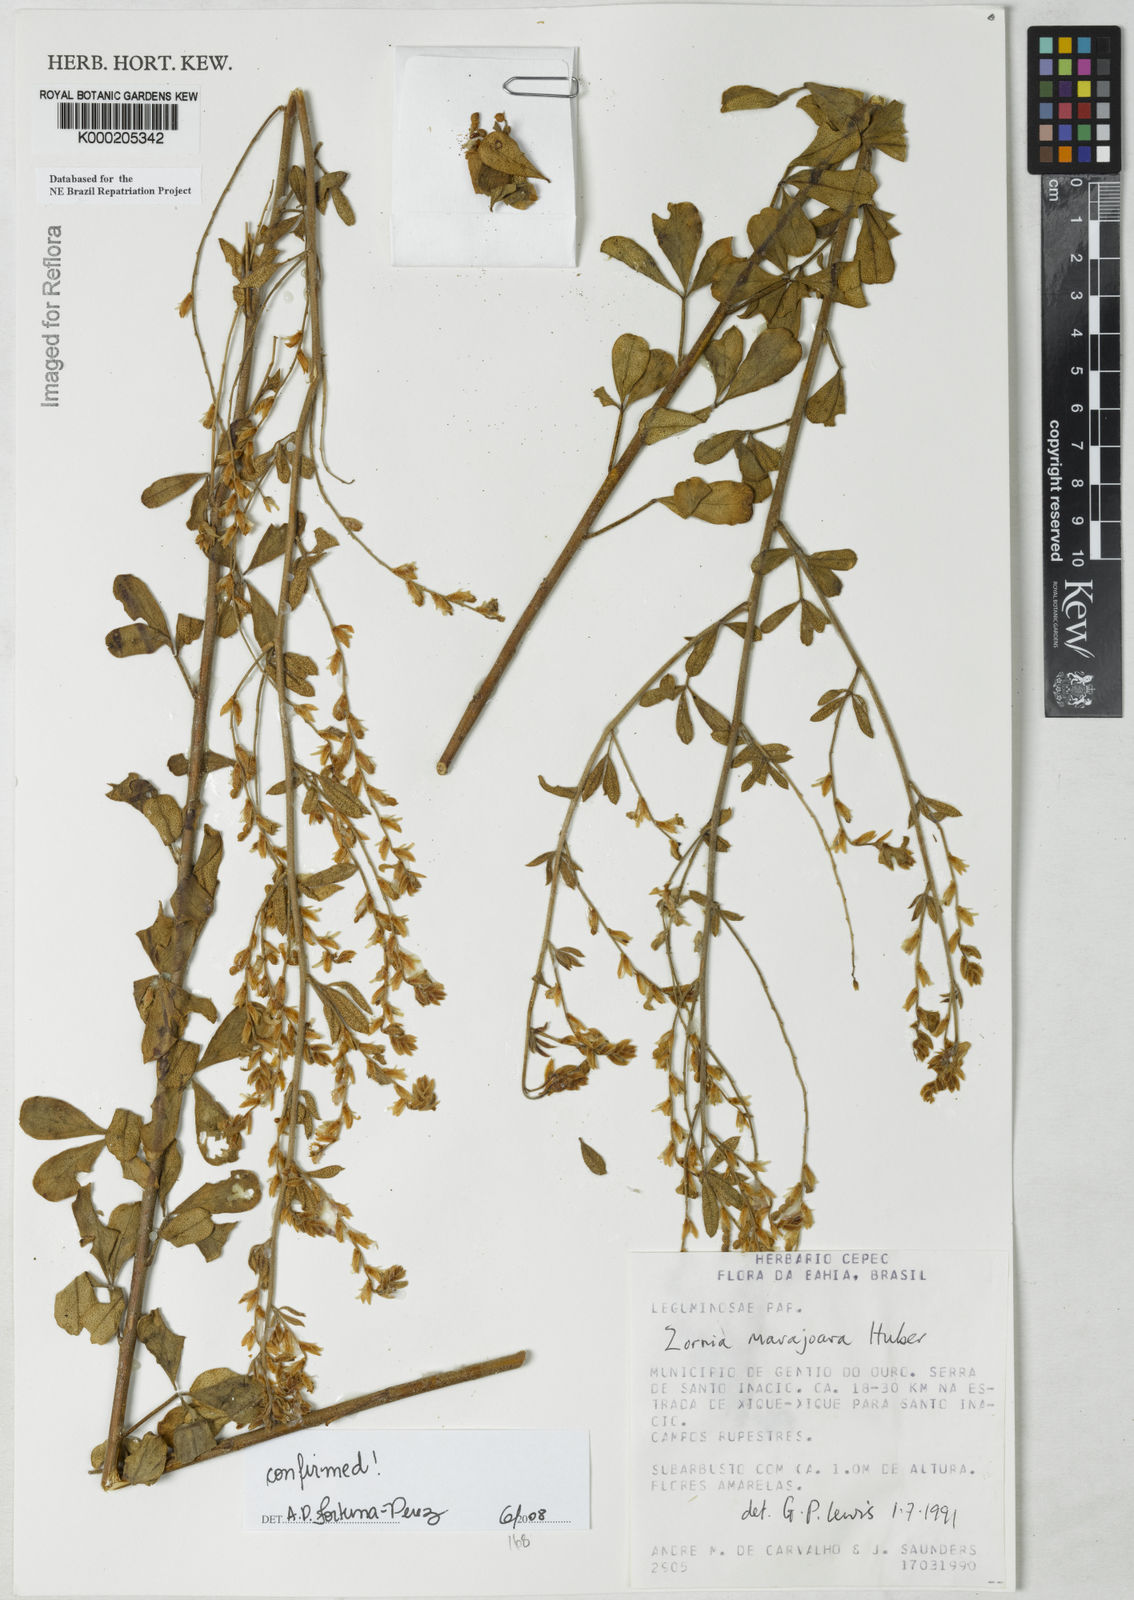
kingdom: Plantae
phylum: Tracheophyta
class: Magnoliopsida
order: Fabales
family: Fabaceae
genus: Zornia
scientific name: Zornia guanipensis
